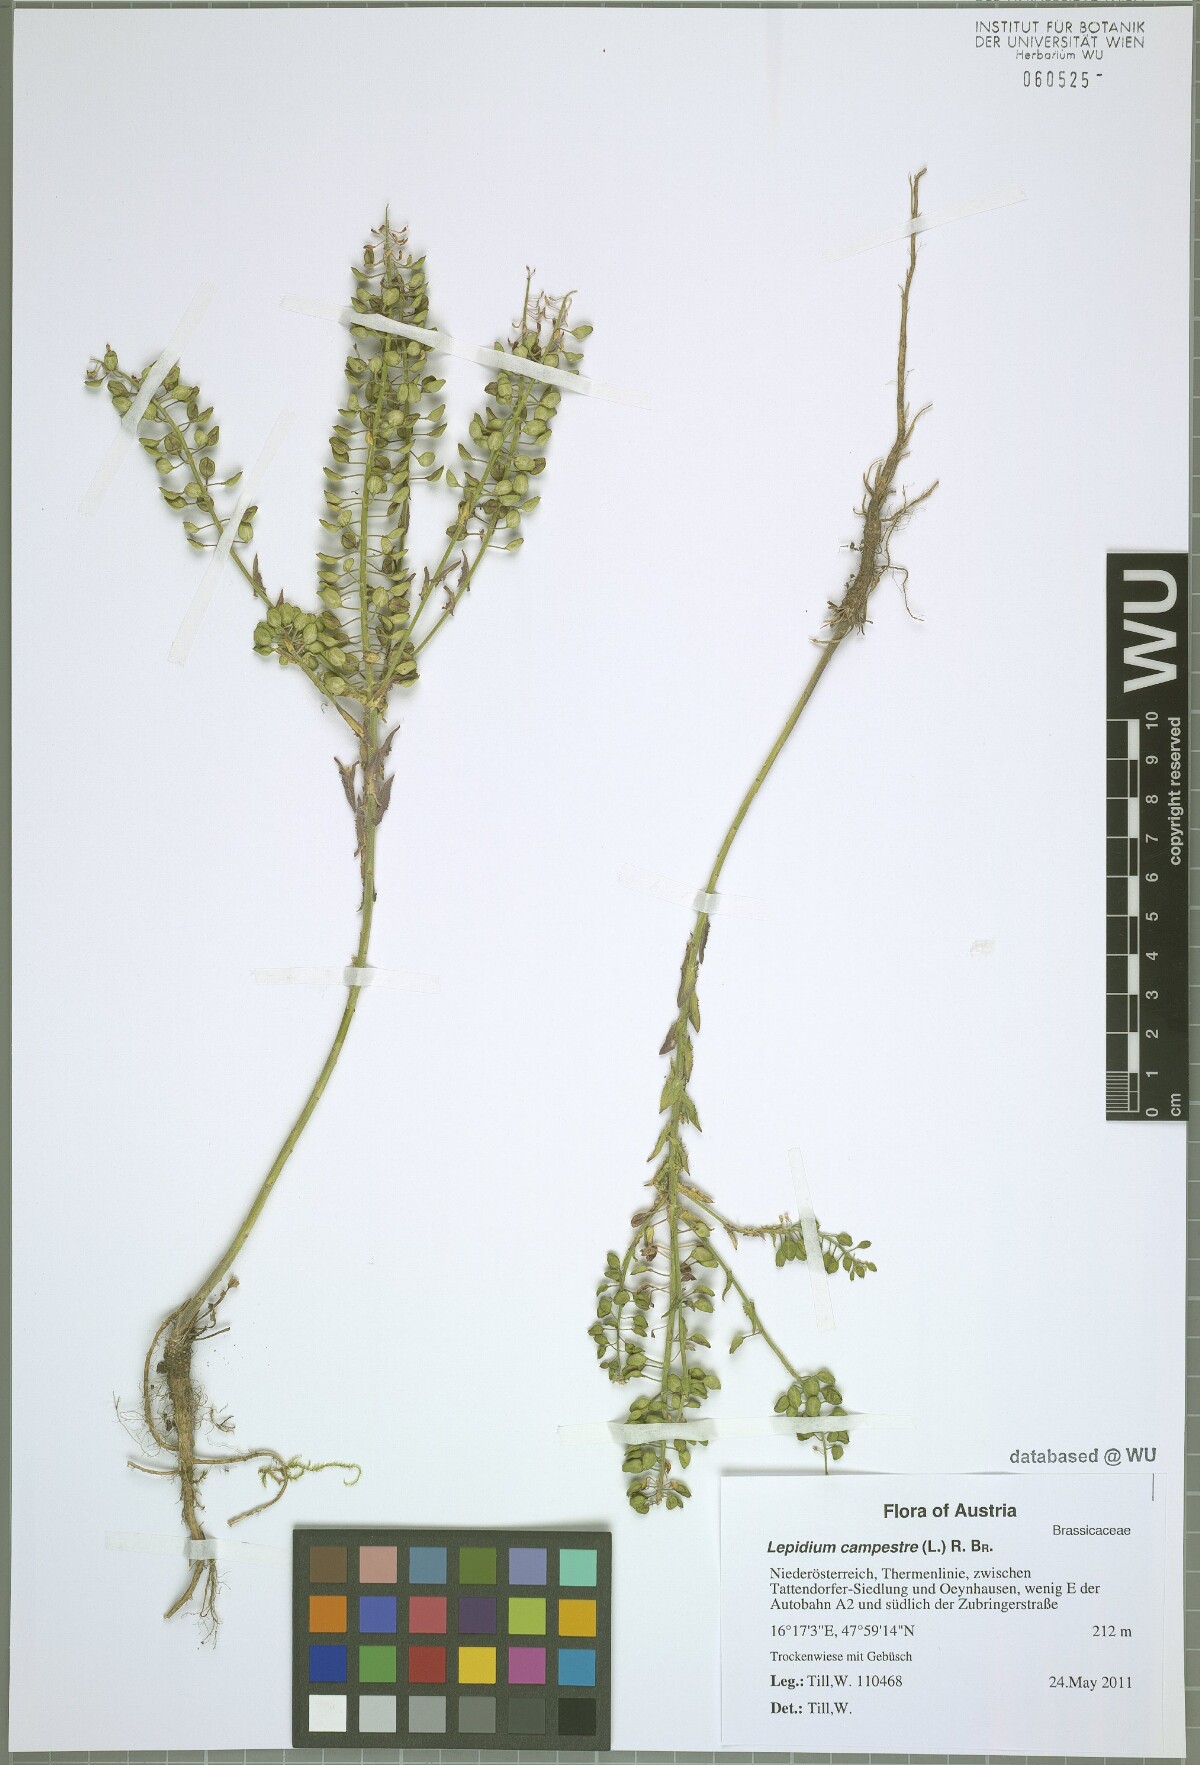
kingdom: Plantae
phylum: Tracheophyta
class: Magnoliopsida
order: Brassicales
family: Brassicaceae
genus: Lepidium
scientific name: Lepidium campestre
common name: Field pepperwort
